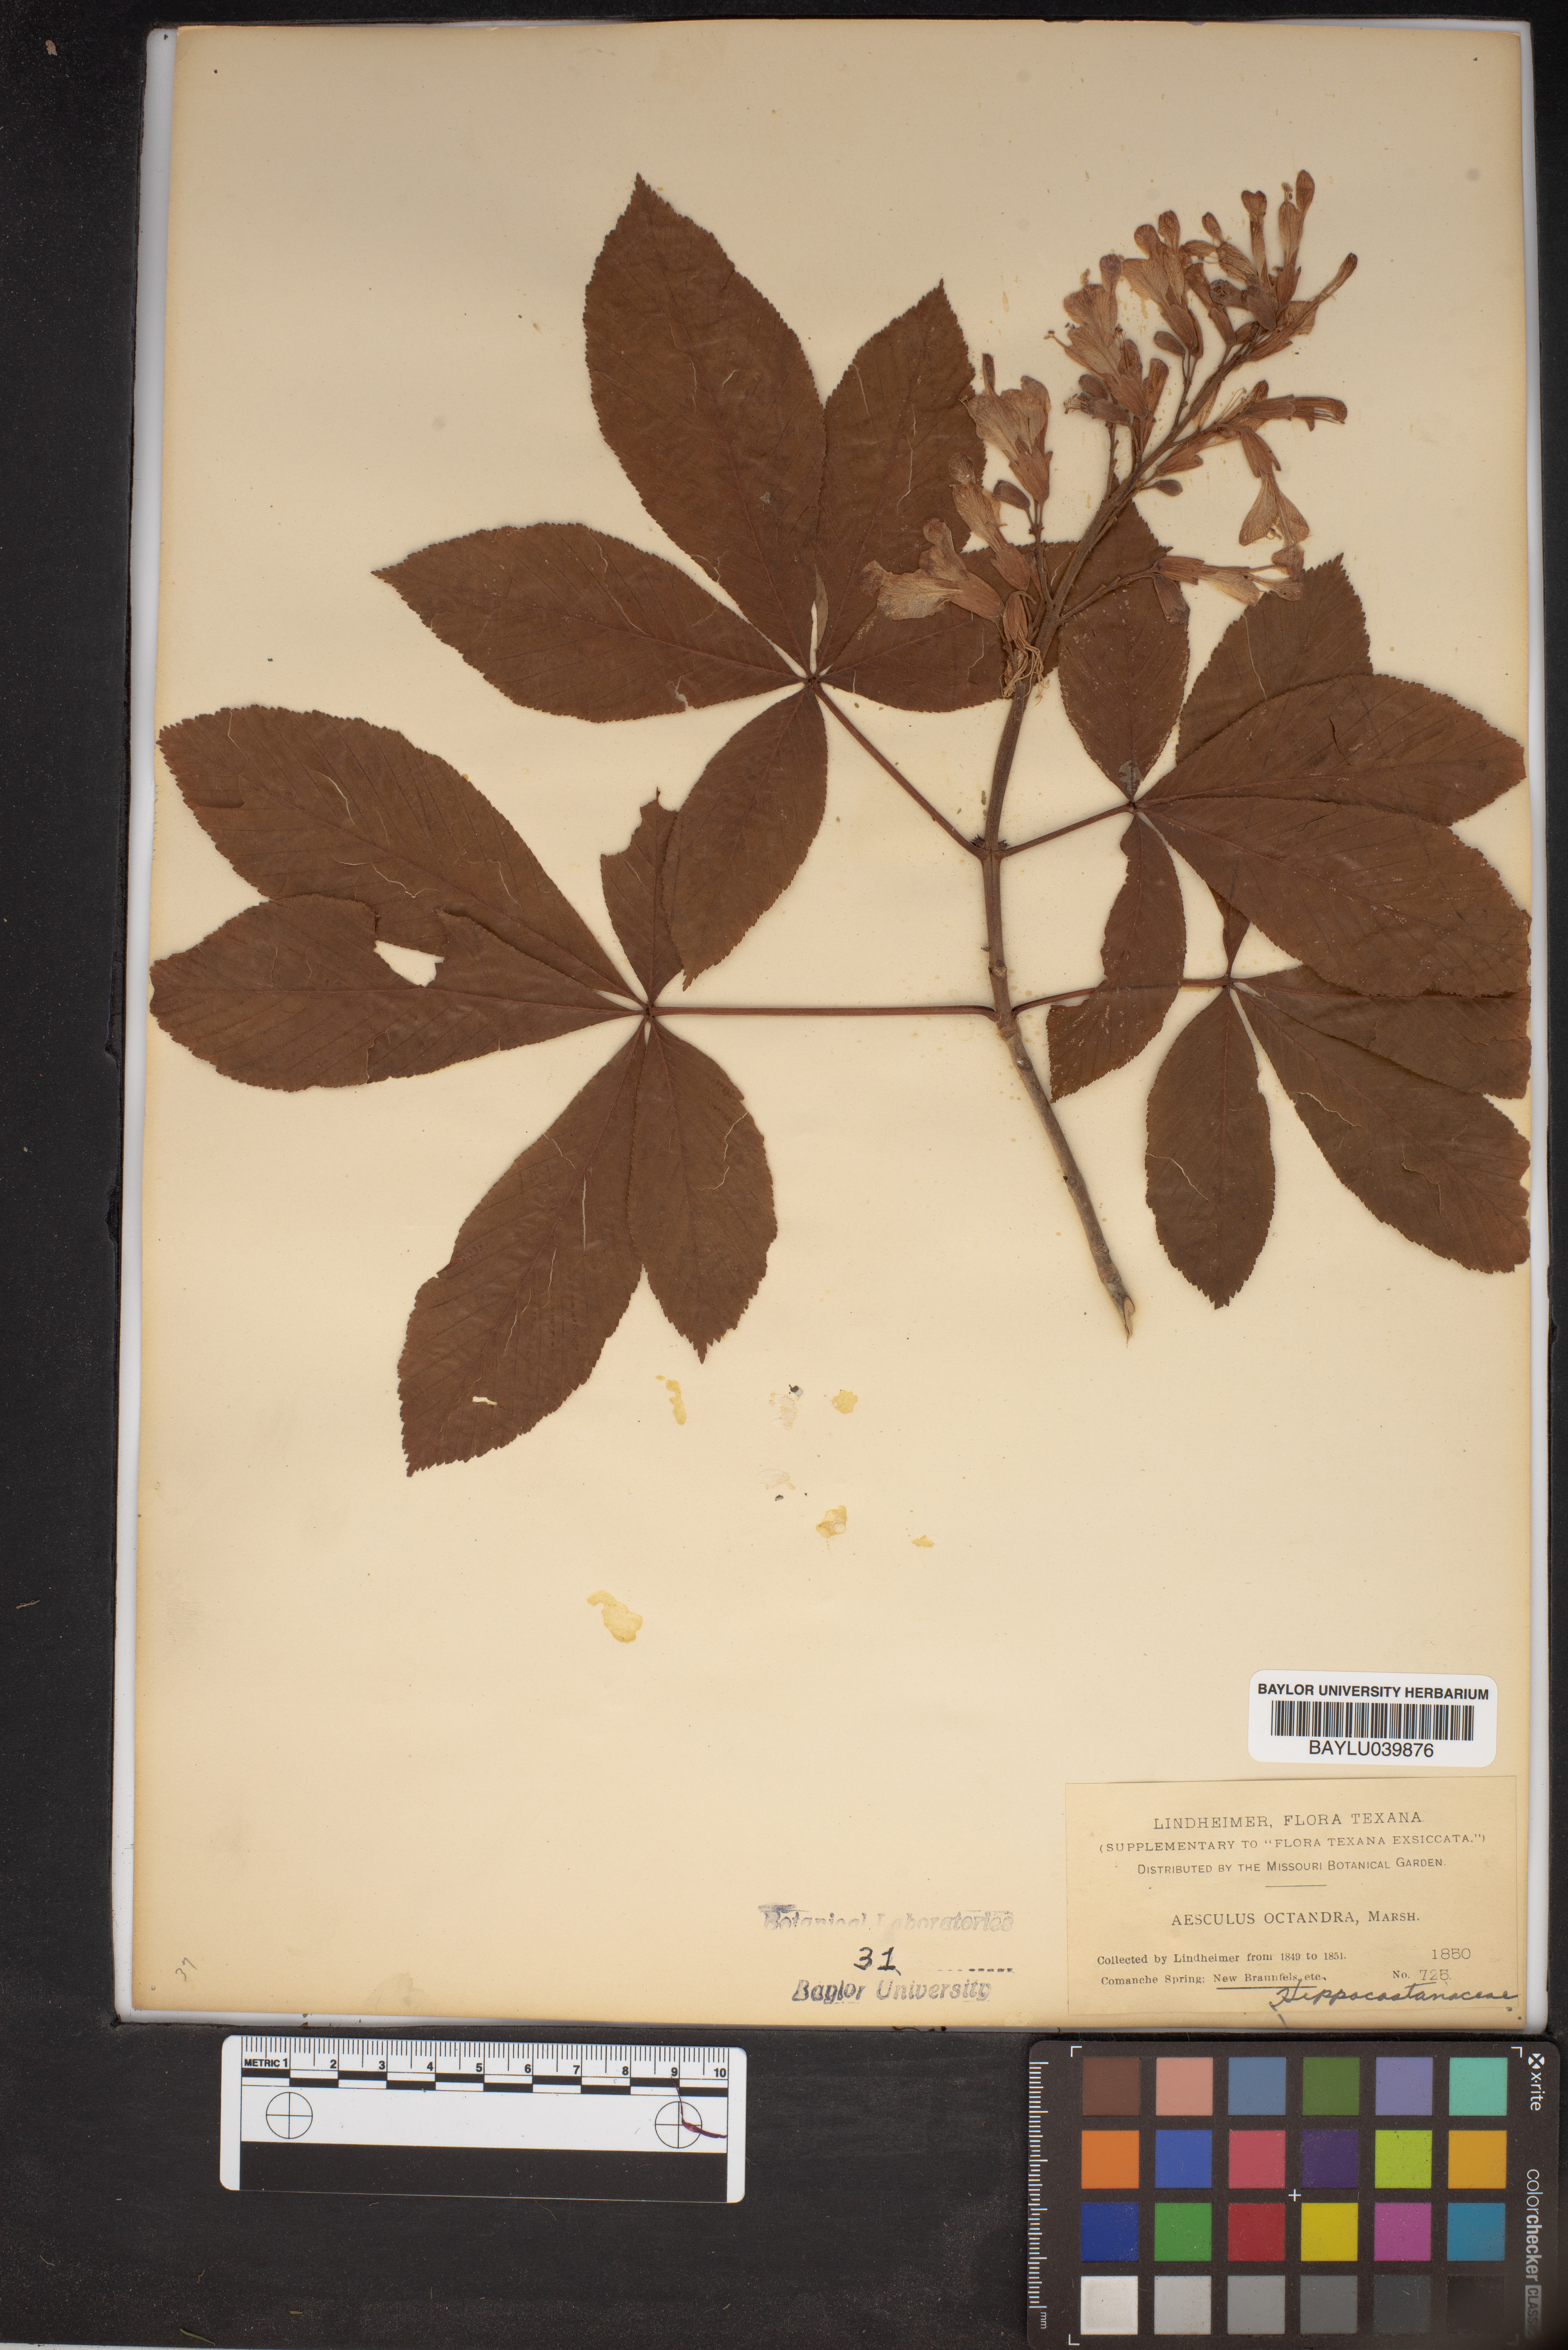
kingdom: Plantae
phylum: Tracheophyta
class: Magnoliopsida
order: Sapindales
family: Sapindaceae
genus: Aesculus
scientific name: Aesculus flava
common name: Yellow buckeye
